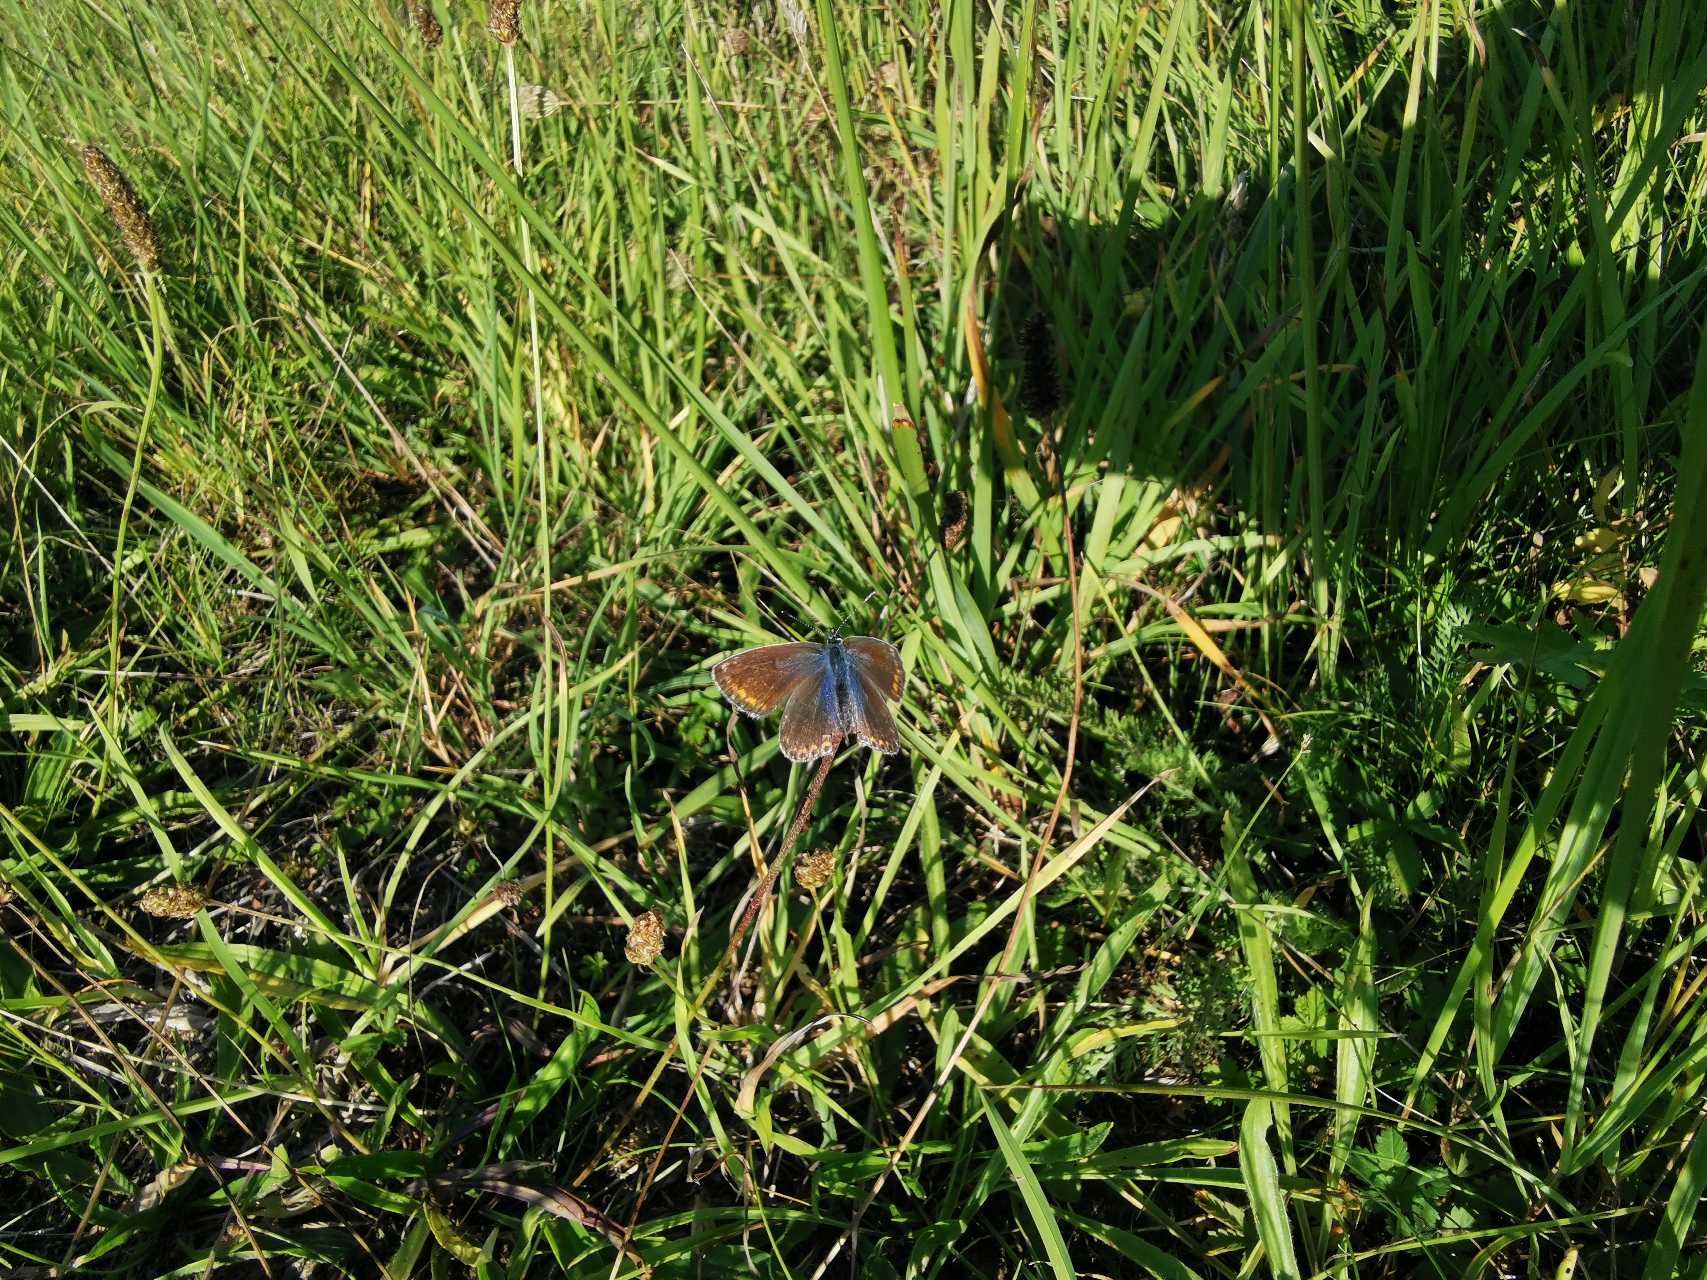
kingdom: Animalia
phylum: Arthropoda
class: Insecta
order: Lepidoptera
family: Lycaenidae
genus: Polyommatus
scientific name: Polyommatus icarus
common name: Almindelig blåfugl
